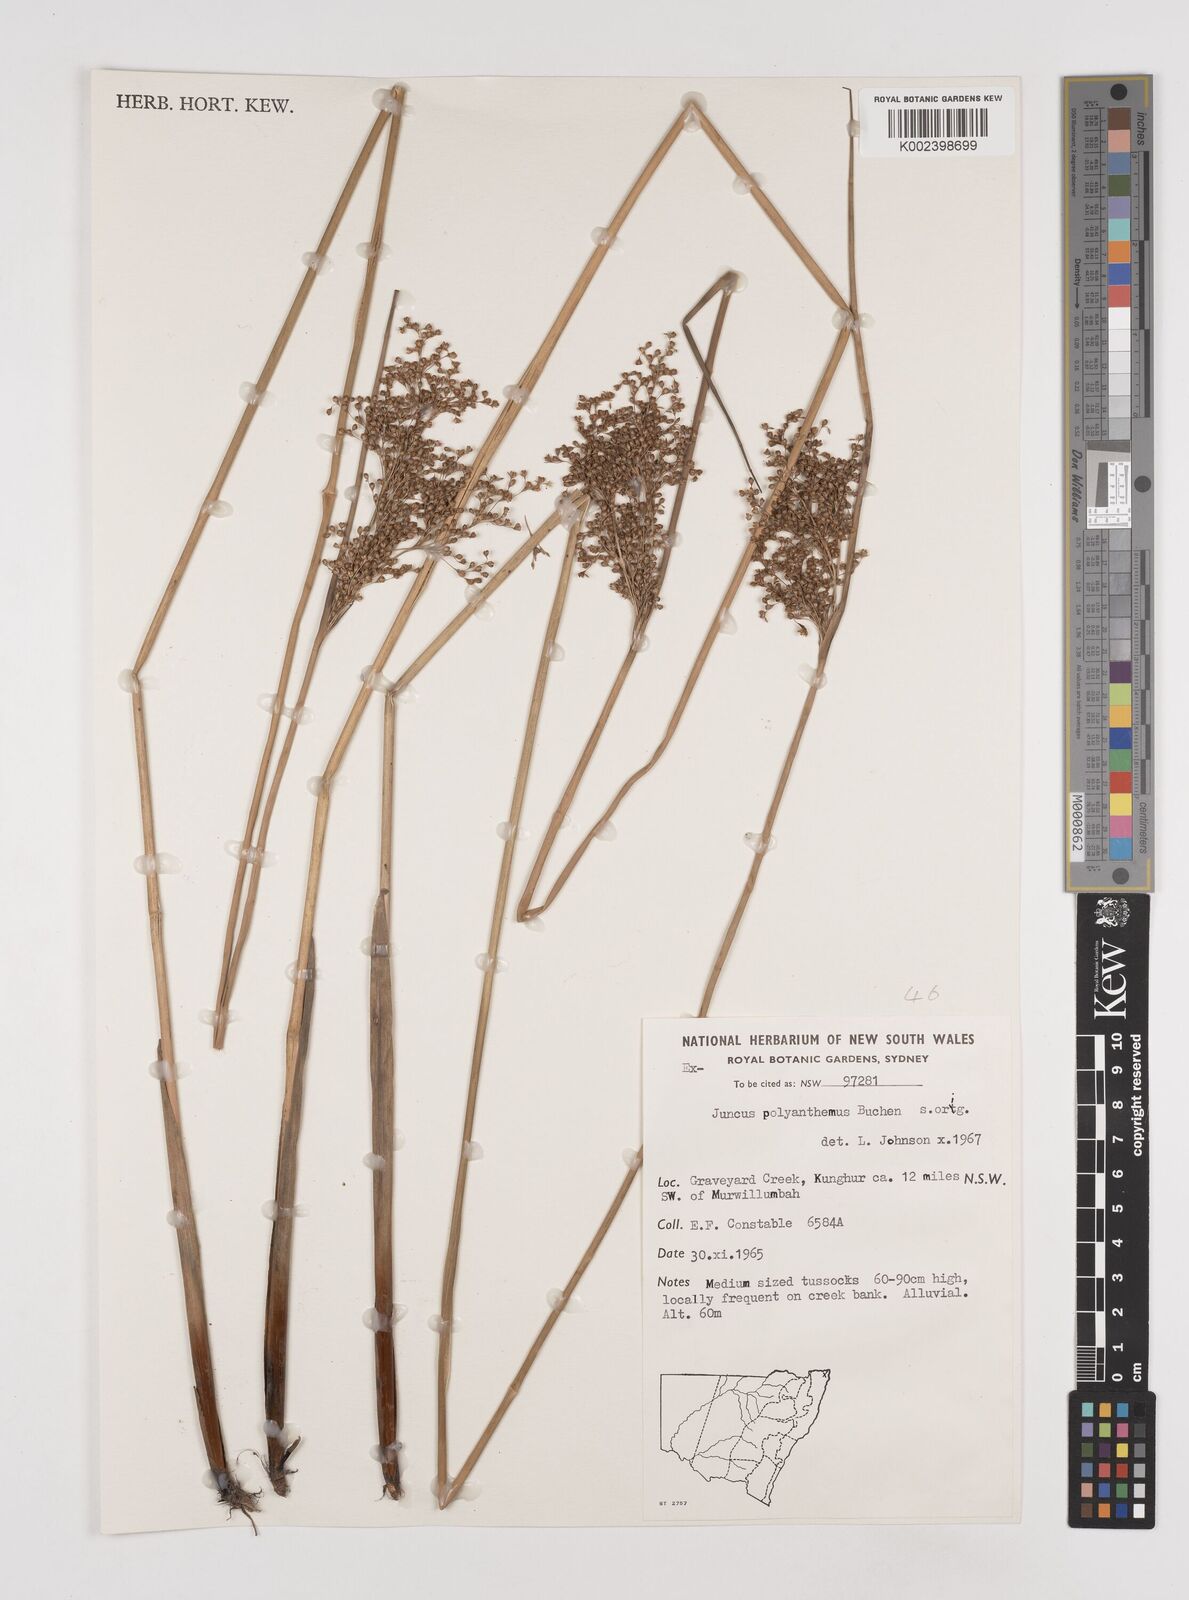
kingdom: Plantae
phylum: Tracheophyta
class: Liliopsida
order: Poales
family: Juncaceae
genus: Juncus
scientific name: Juncus polyanthemus
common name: Manyflower rush
